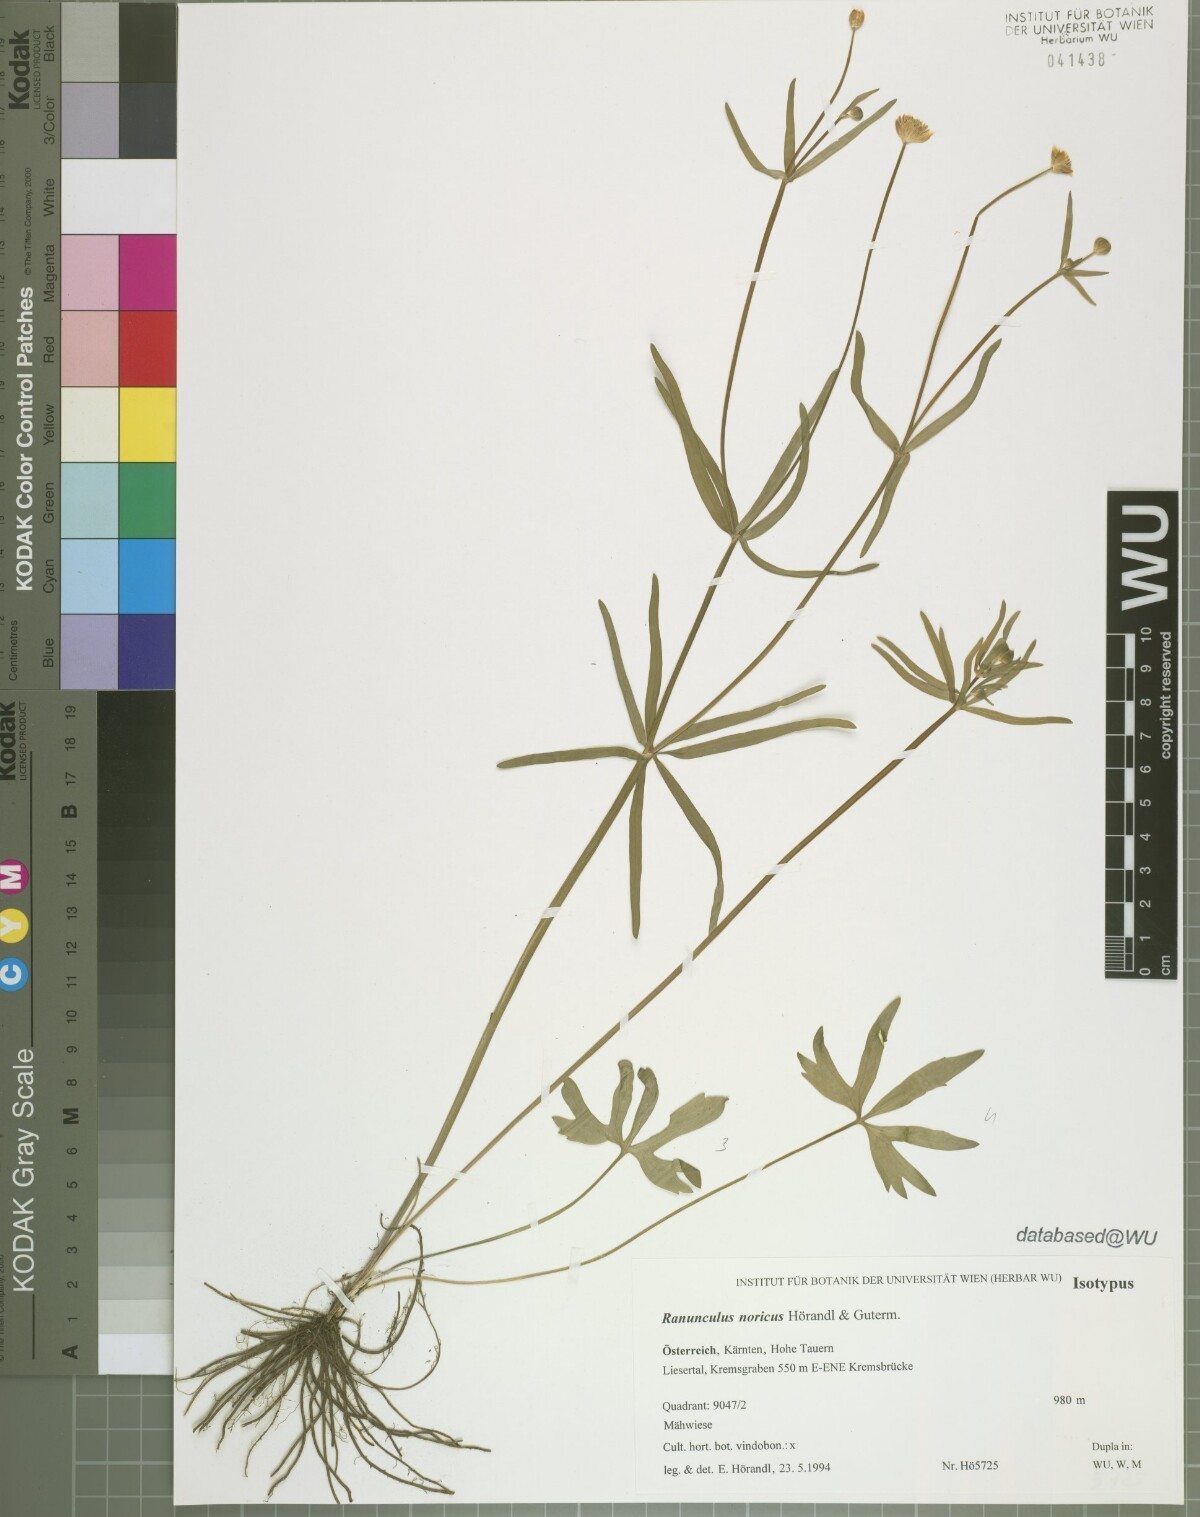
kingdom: Plantae
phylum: Tracheophyta
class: Magnoliopsida
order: Ranunculales
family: Ranunculaceae
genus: Ranunculus
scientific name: Ranunculus noricus
